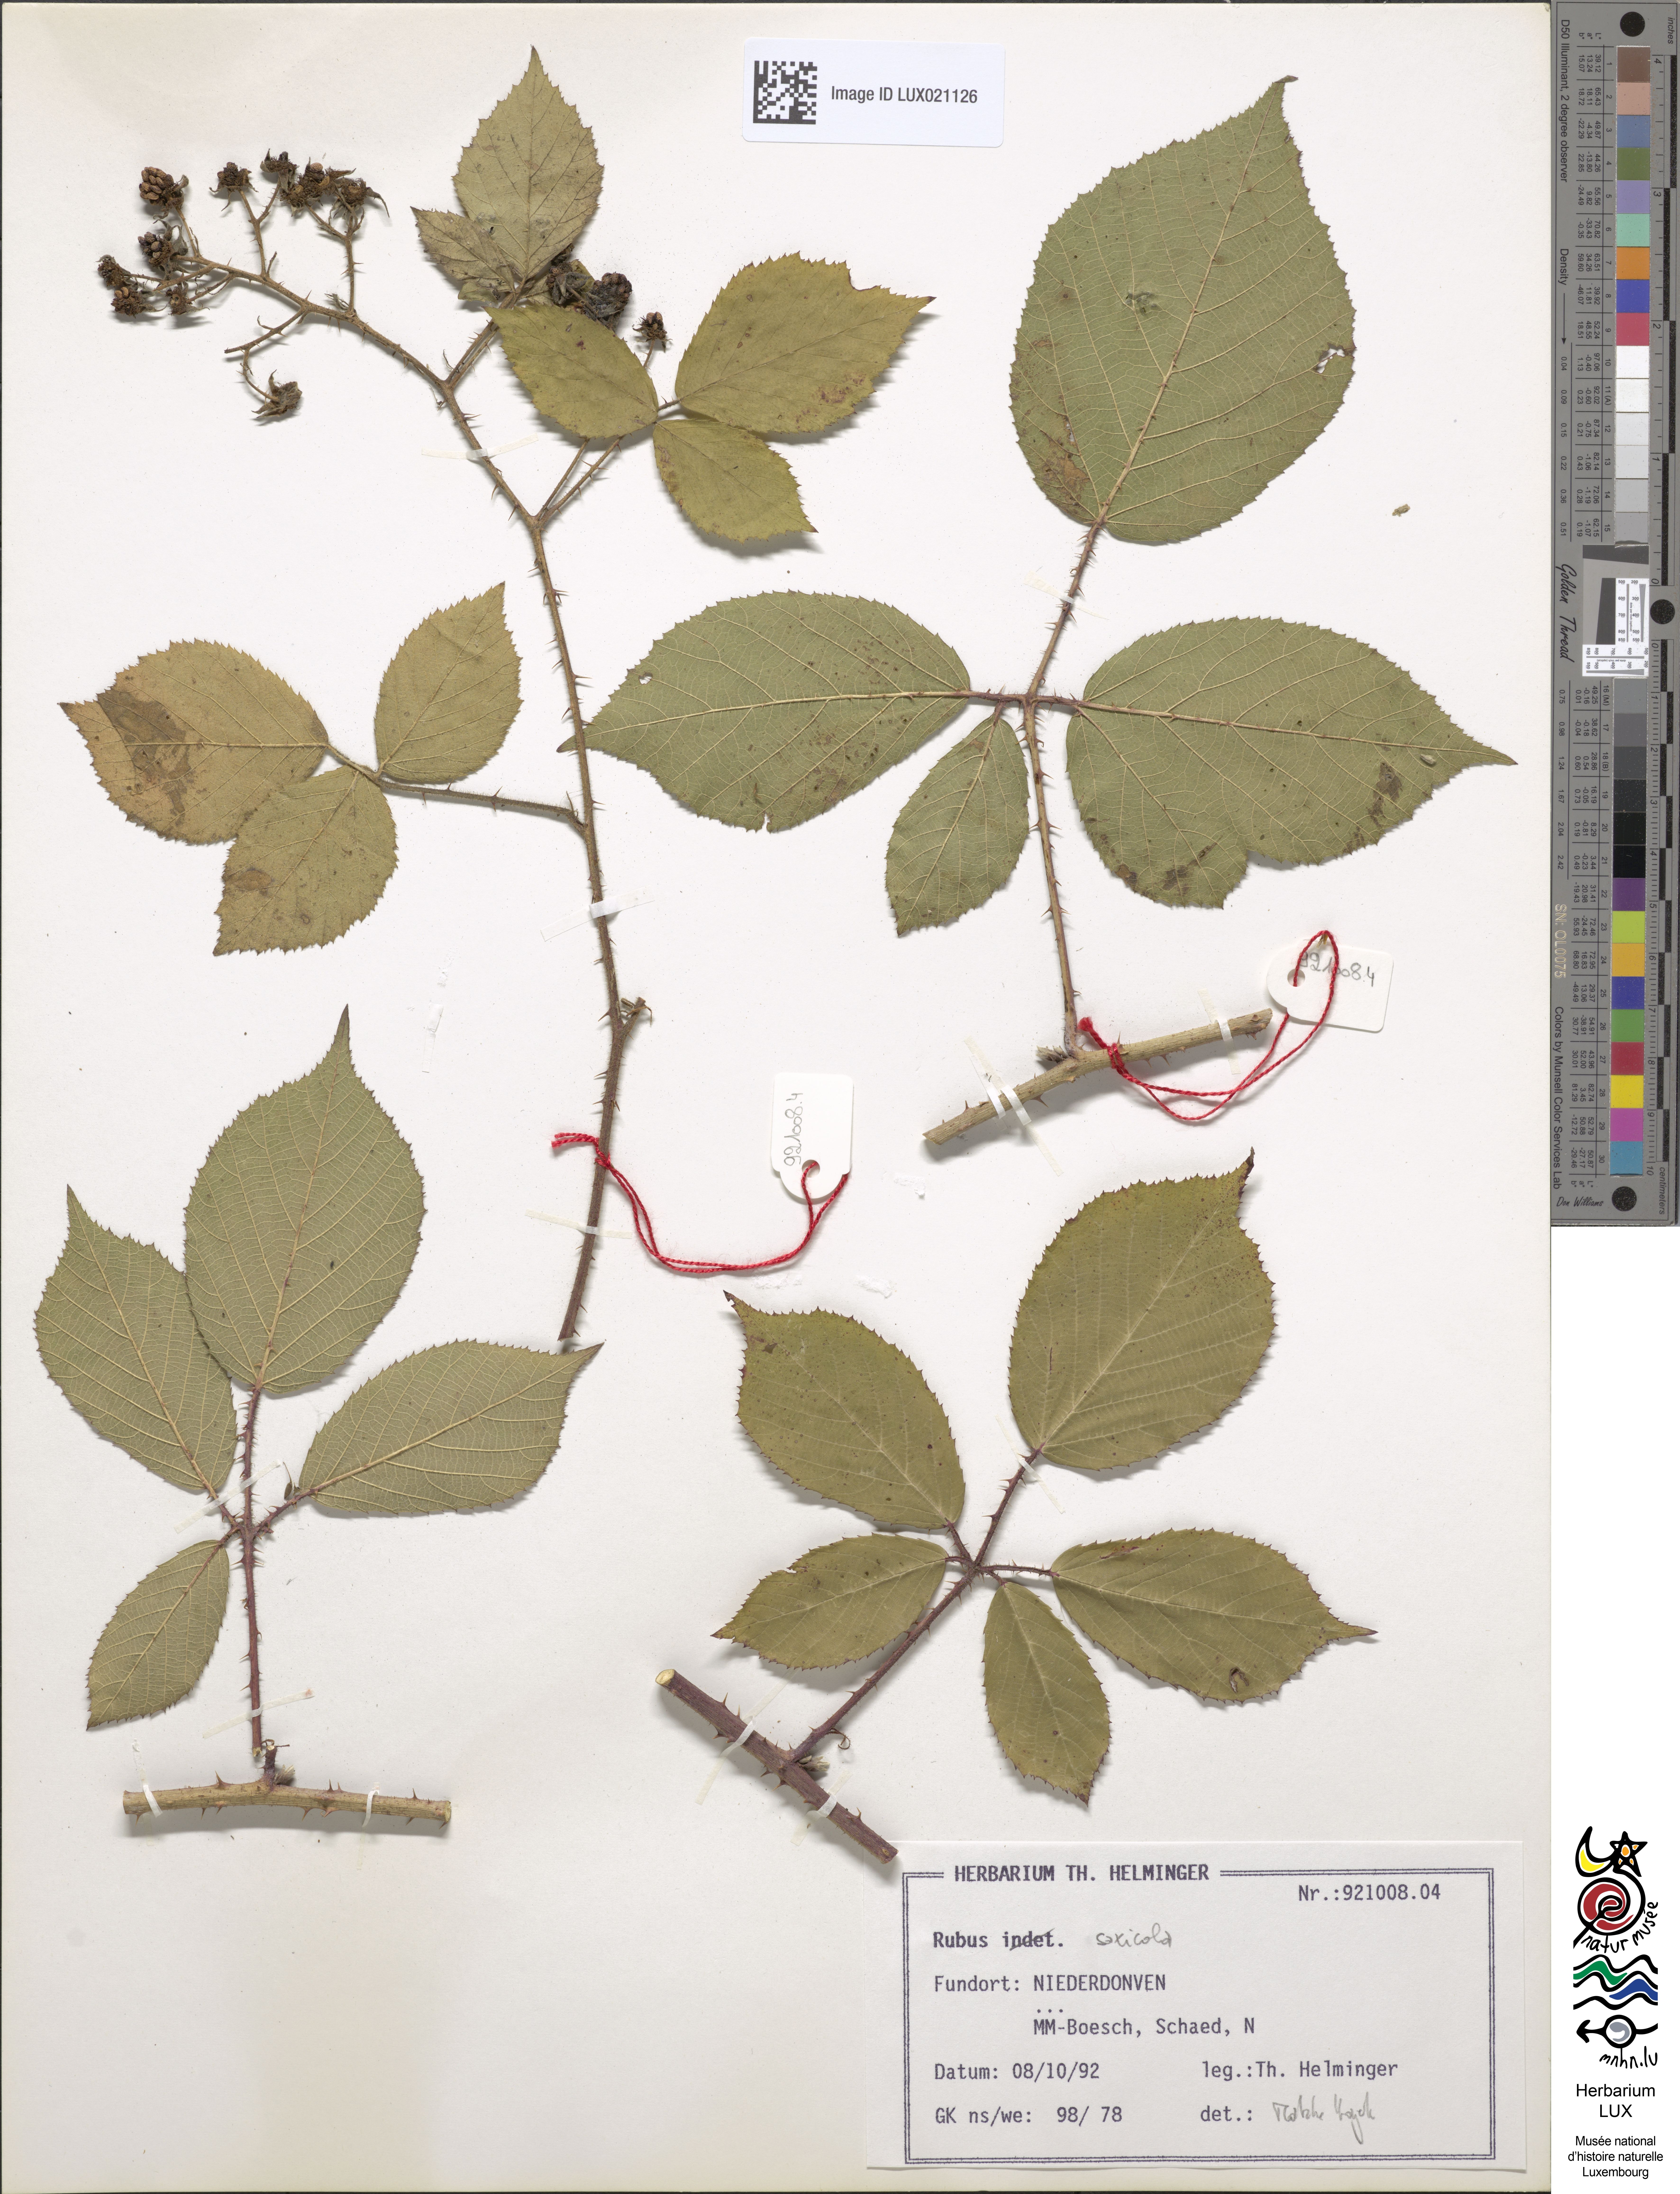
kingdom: Plantae
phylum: Tracheophyta
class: Magnoliopsida
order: Rosales
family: Rosaceae
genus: Rubus
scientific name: Rubus saxicola
